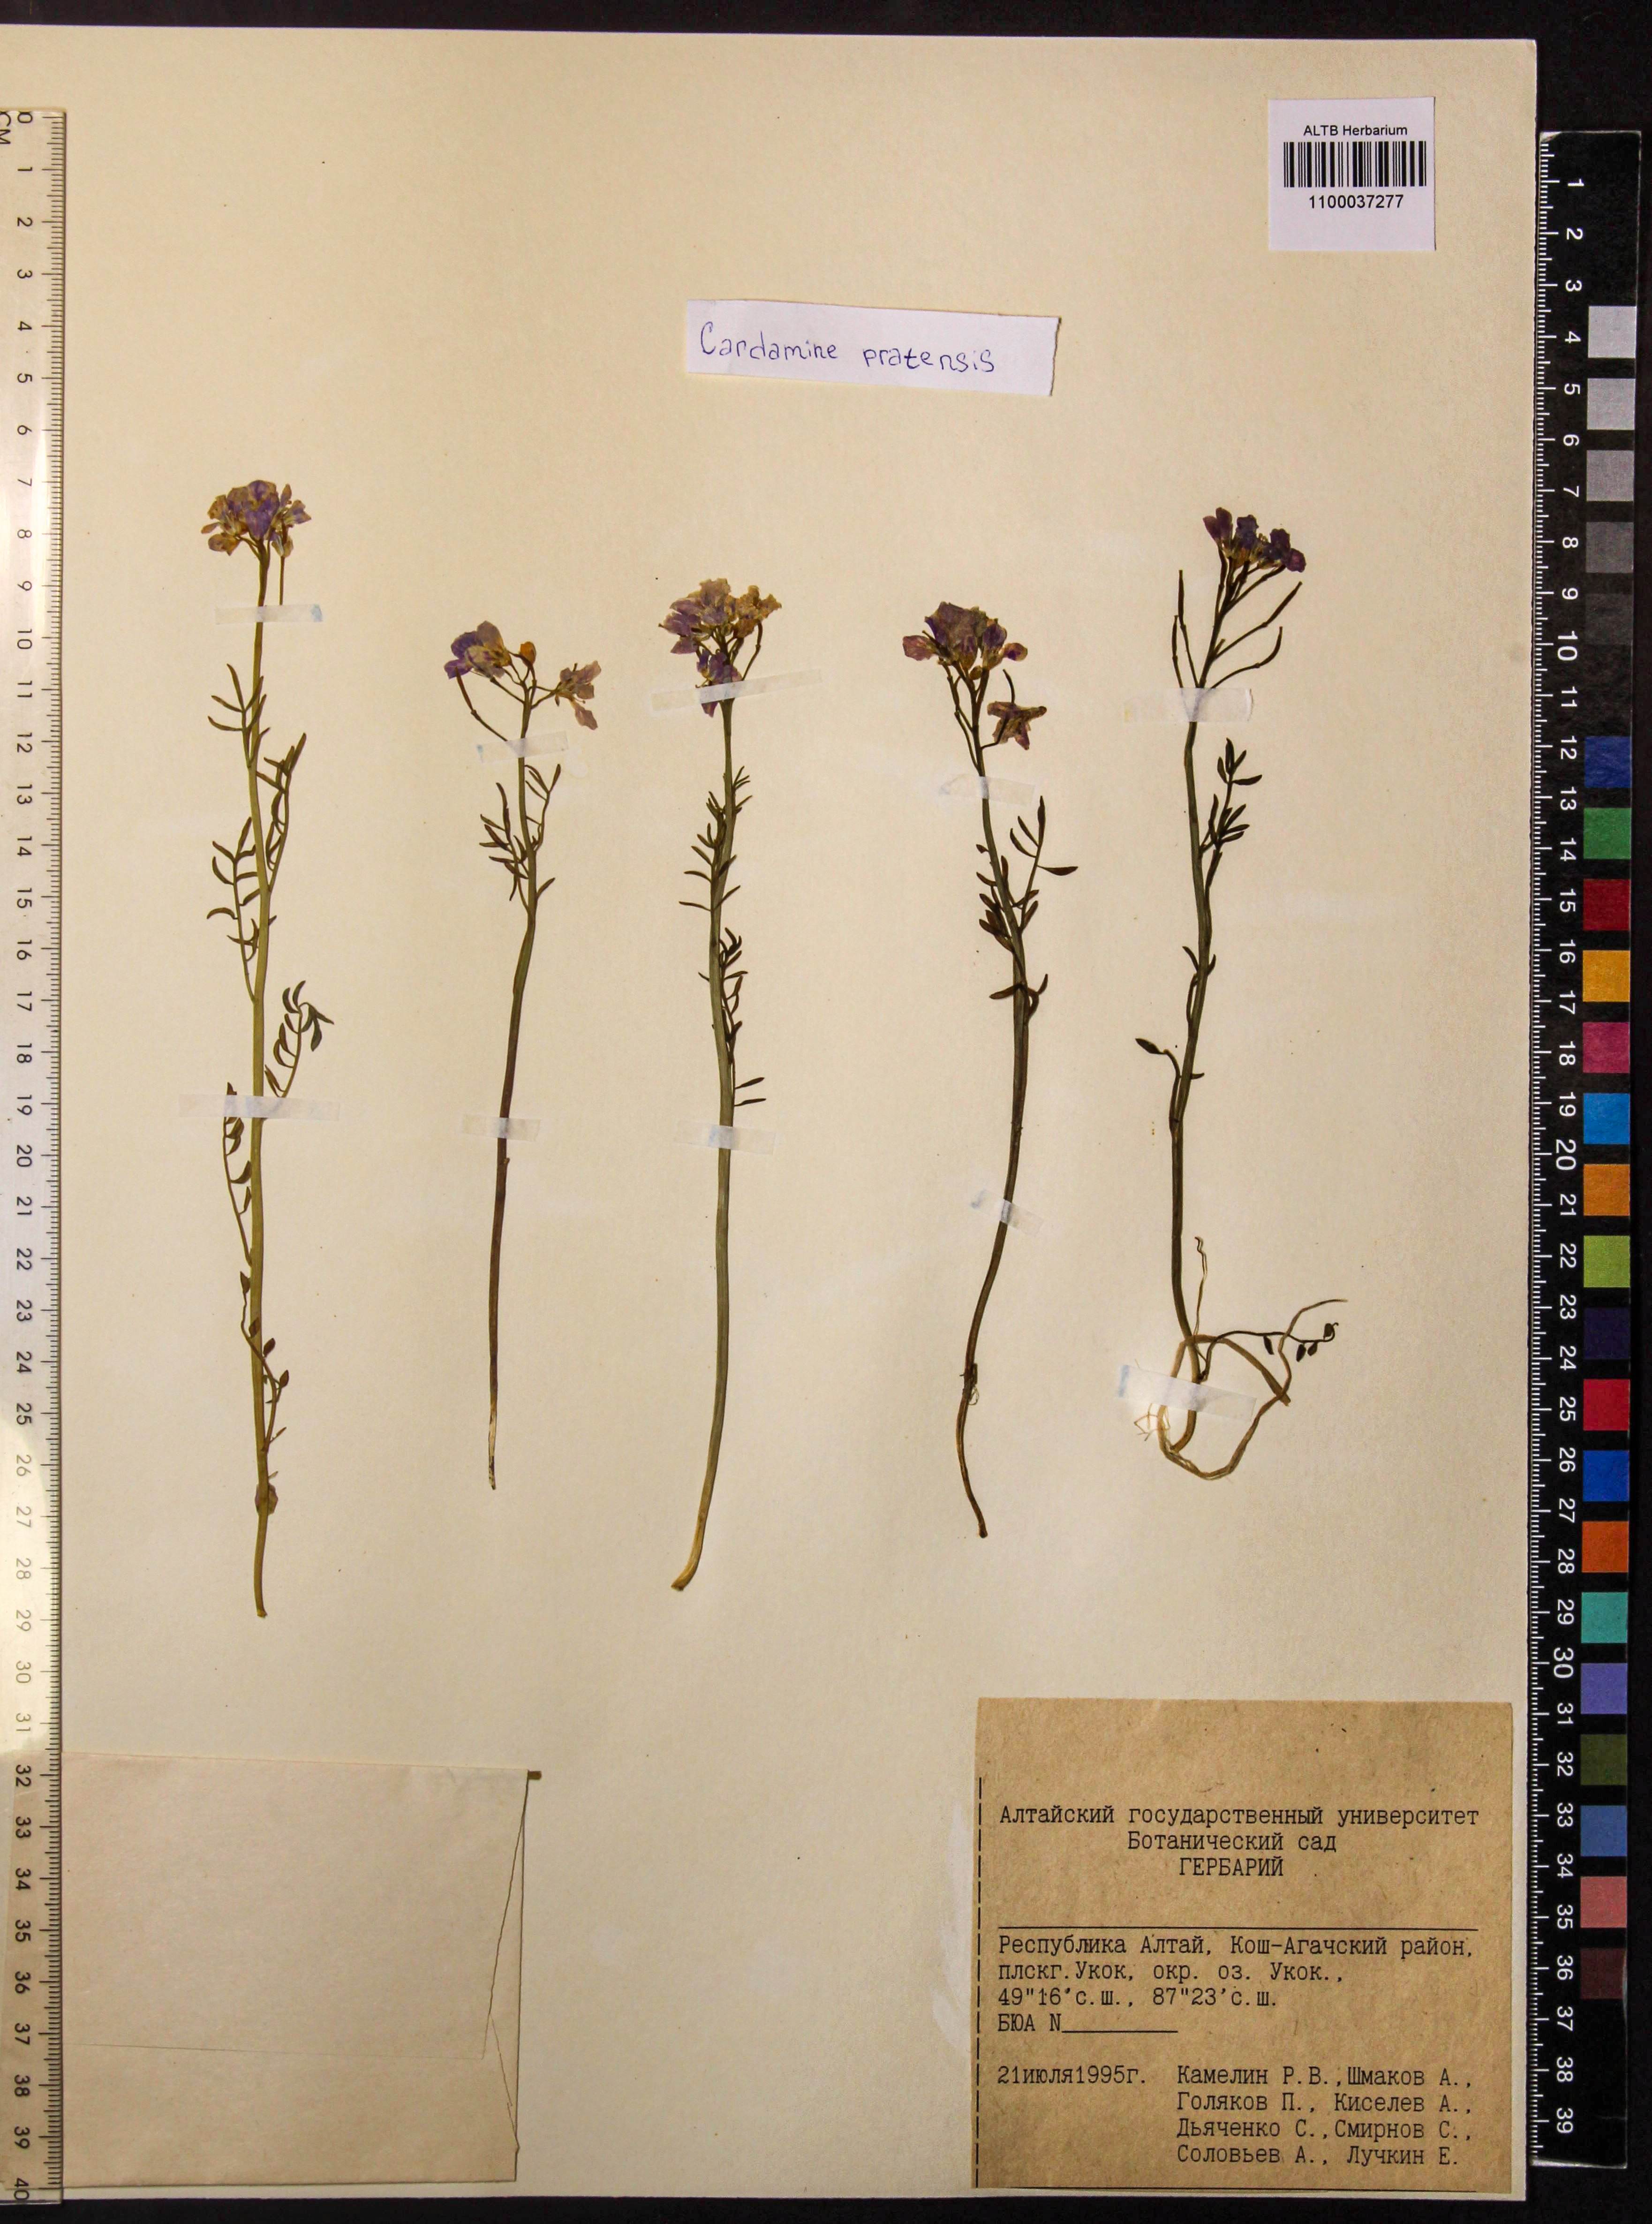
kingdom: Plantae
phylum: Tracheophyta
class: Magnoliopsida
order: Brassicales
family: Brassicaceae
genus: Cardamine
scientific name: Cardamine pratensis
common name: Cuckoo flower
